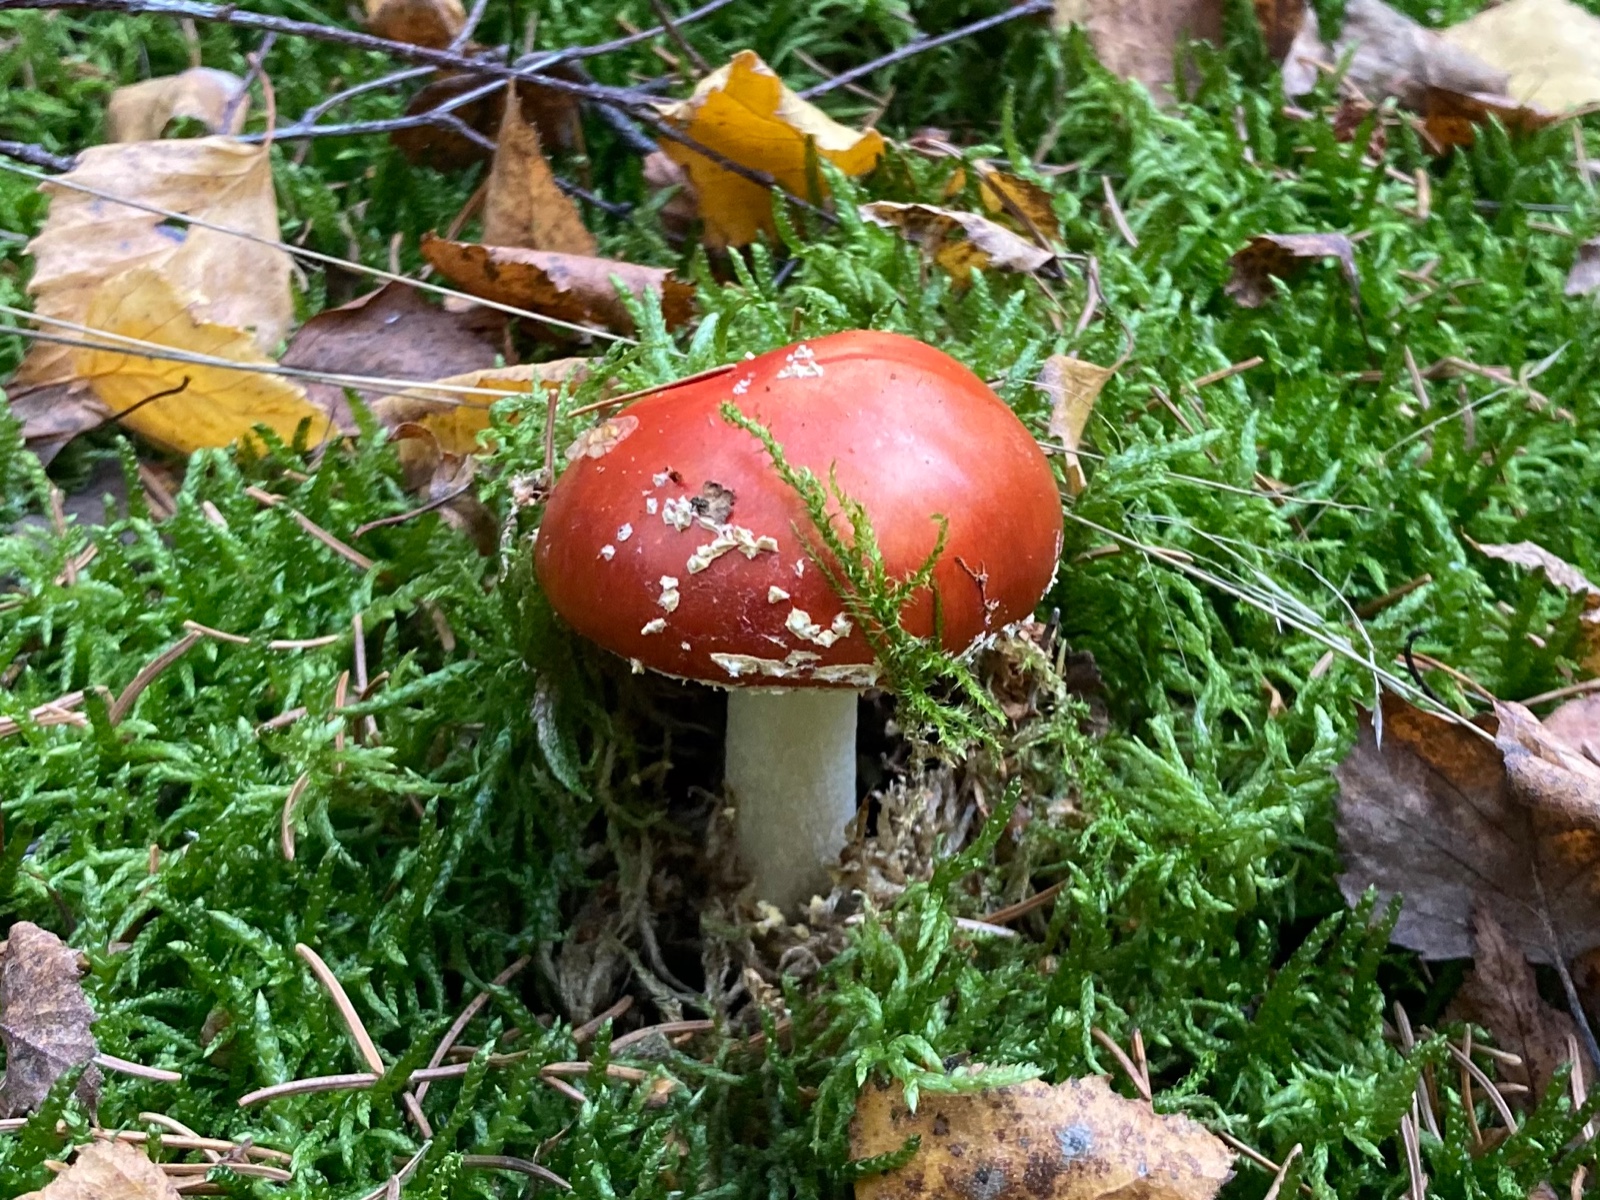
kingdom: Fungi
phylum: Basidiomycota
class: Agaricomycetes
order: Agaricales
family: Amanitaceae
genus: Amanita
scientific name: Amanita muscaria
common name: rød fluesvamp
